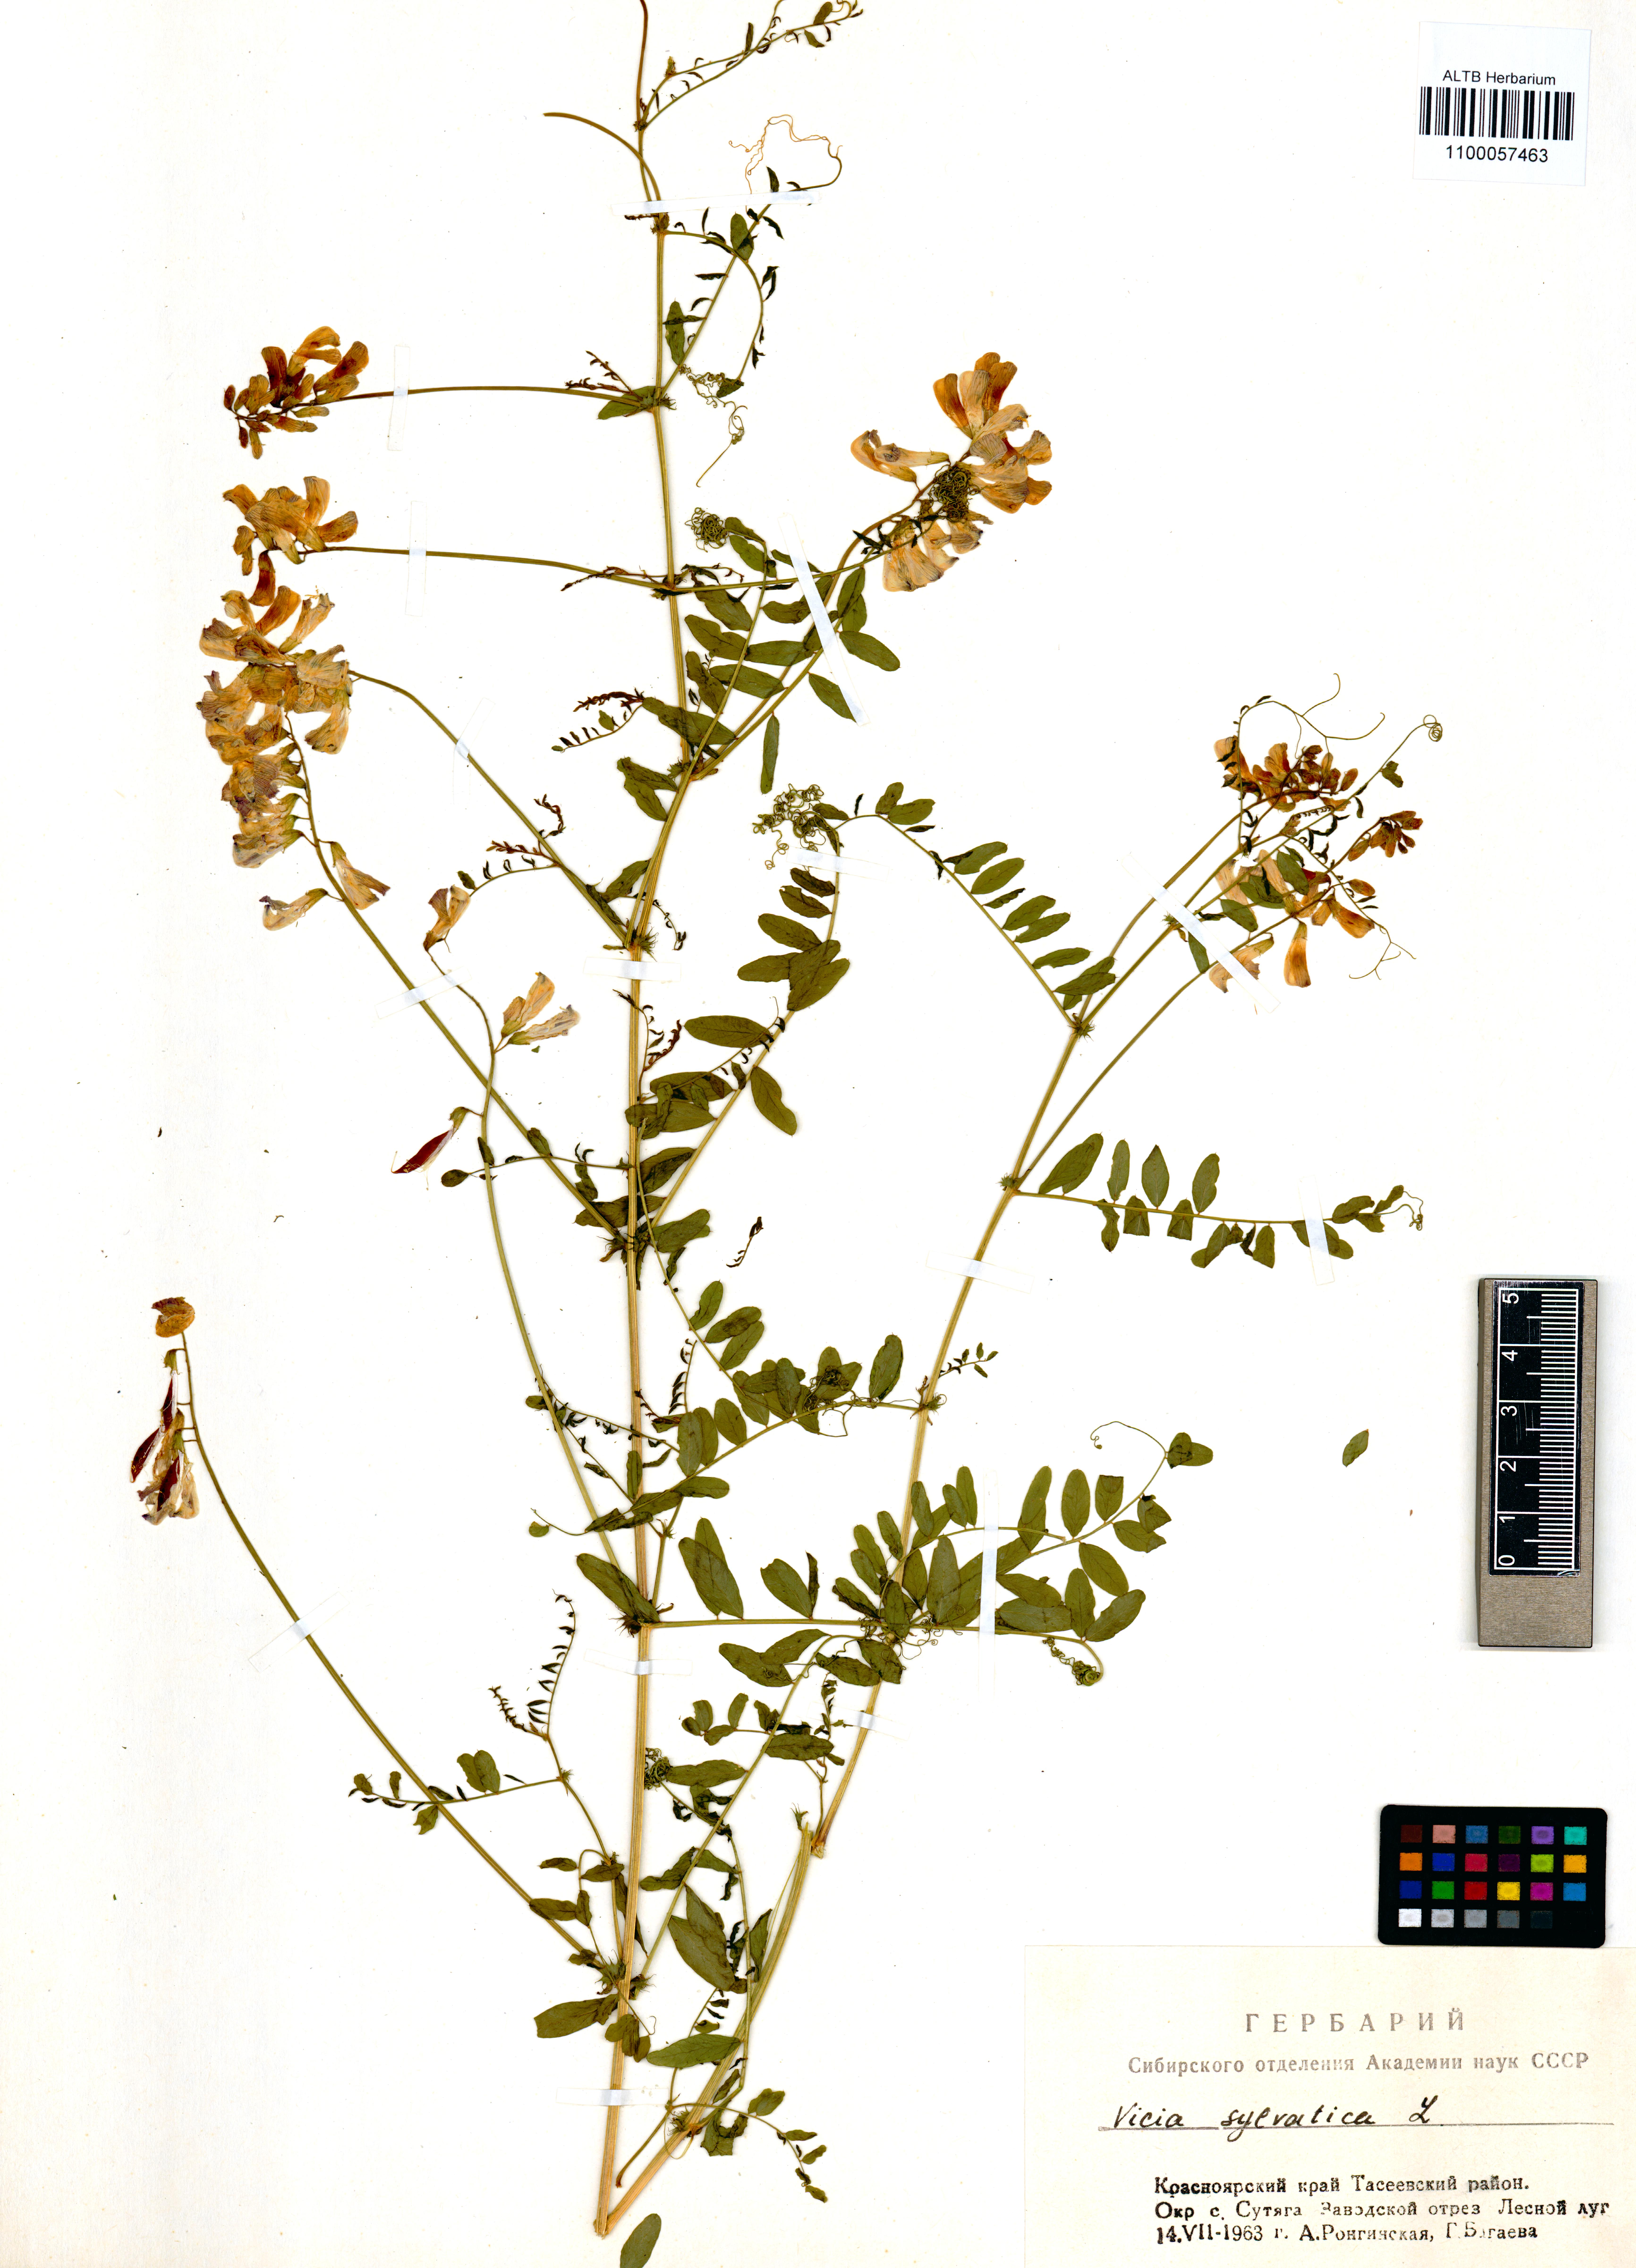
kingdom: Plantae
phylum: Tracheophyta
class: Magnoliopsida
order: Fabales
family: Fabaceae
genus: Vicia
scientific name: Vicia sylvatica
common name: Wood vetch
